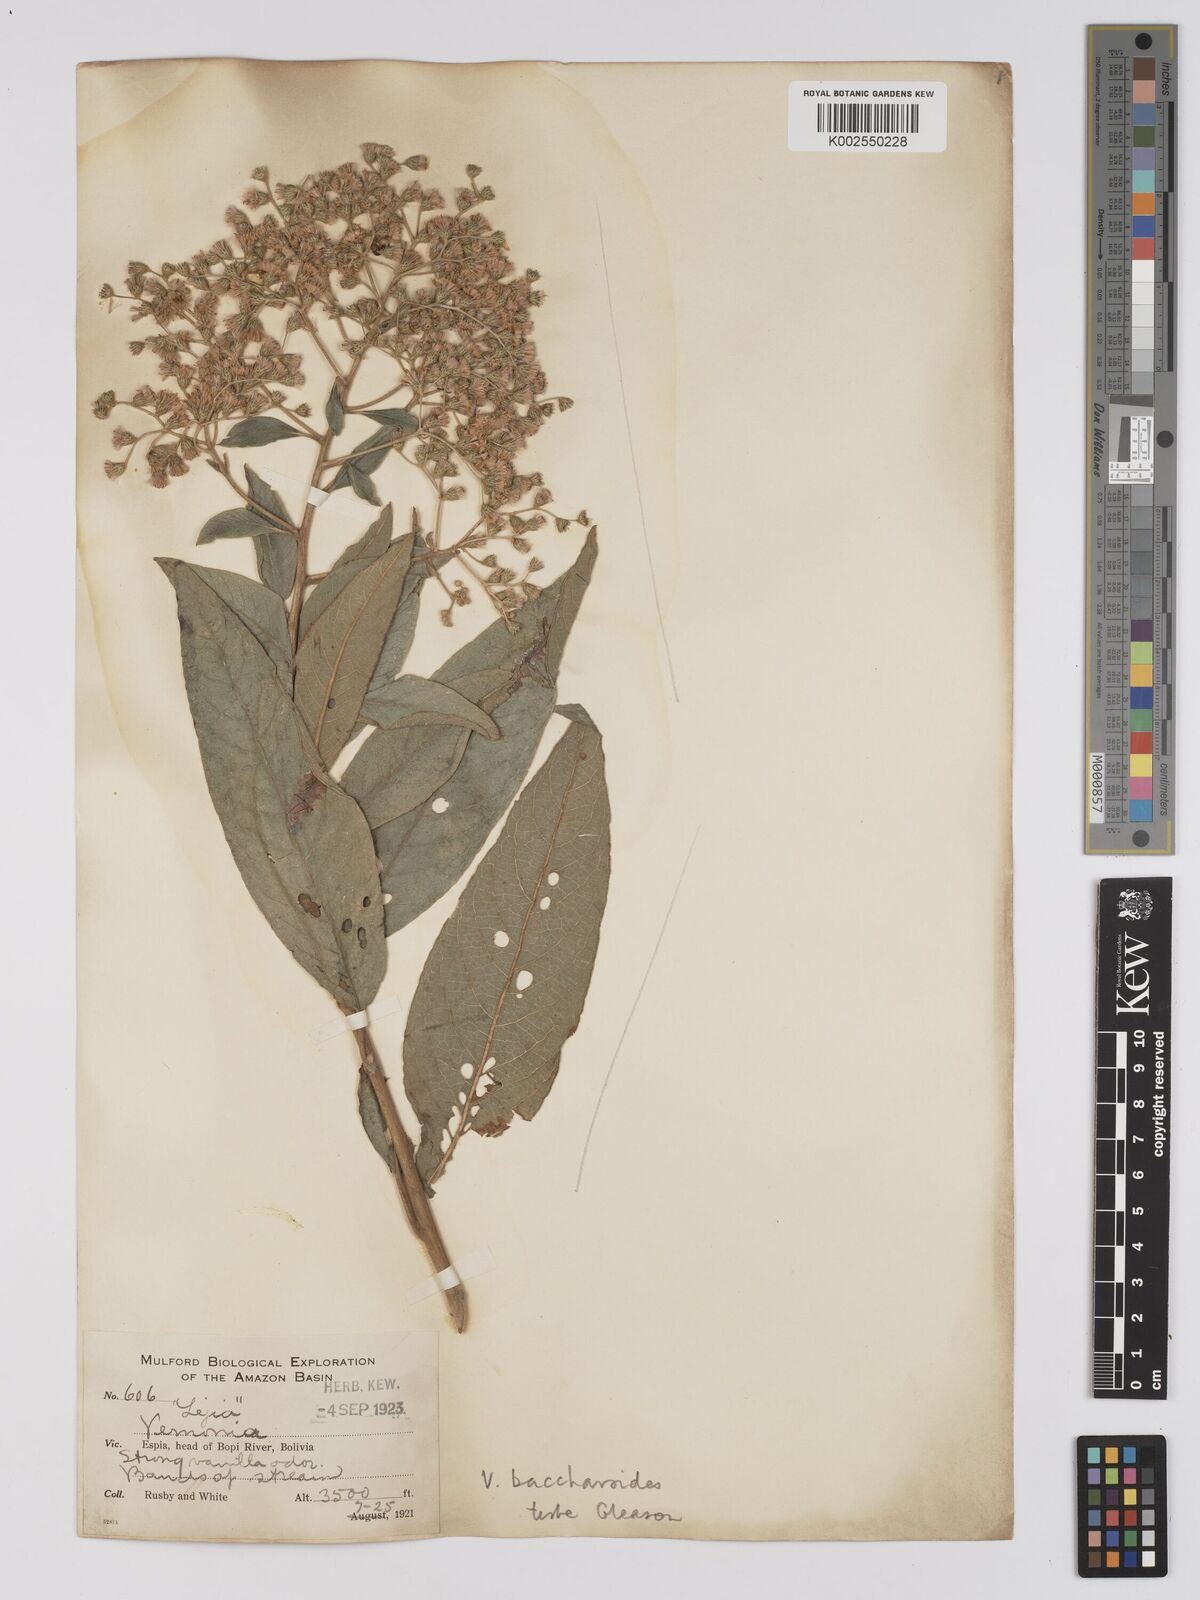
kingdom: Plantae
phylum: Tracheophyta
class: Magnoliopsida
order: Asterales
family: Asteraceae
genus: Vernonanthura
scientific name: Vernonanthura patens
